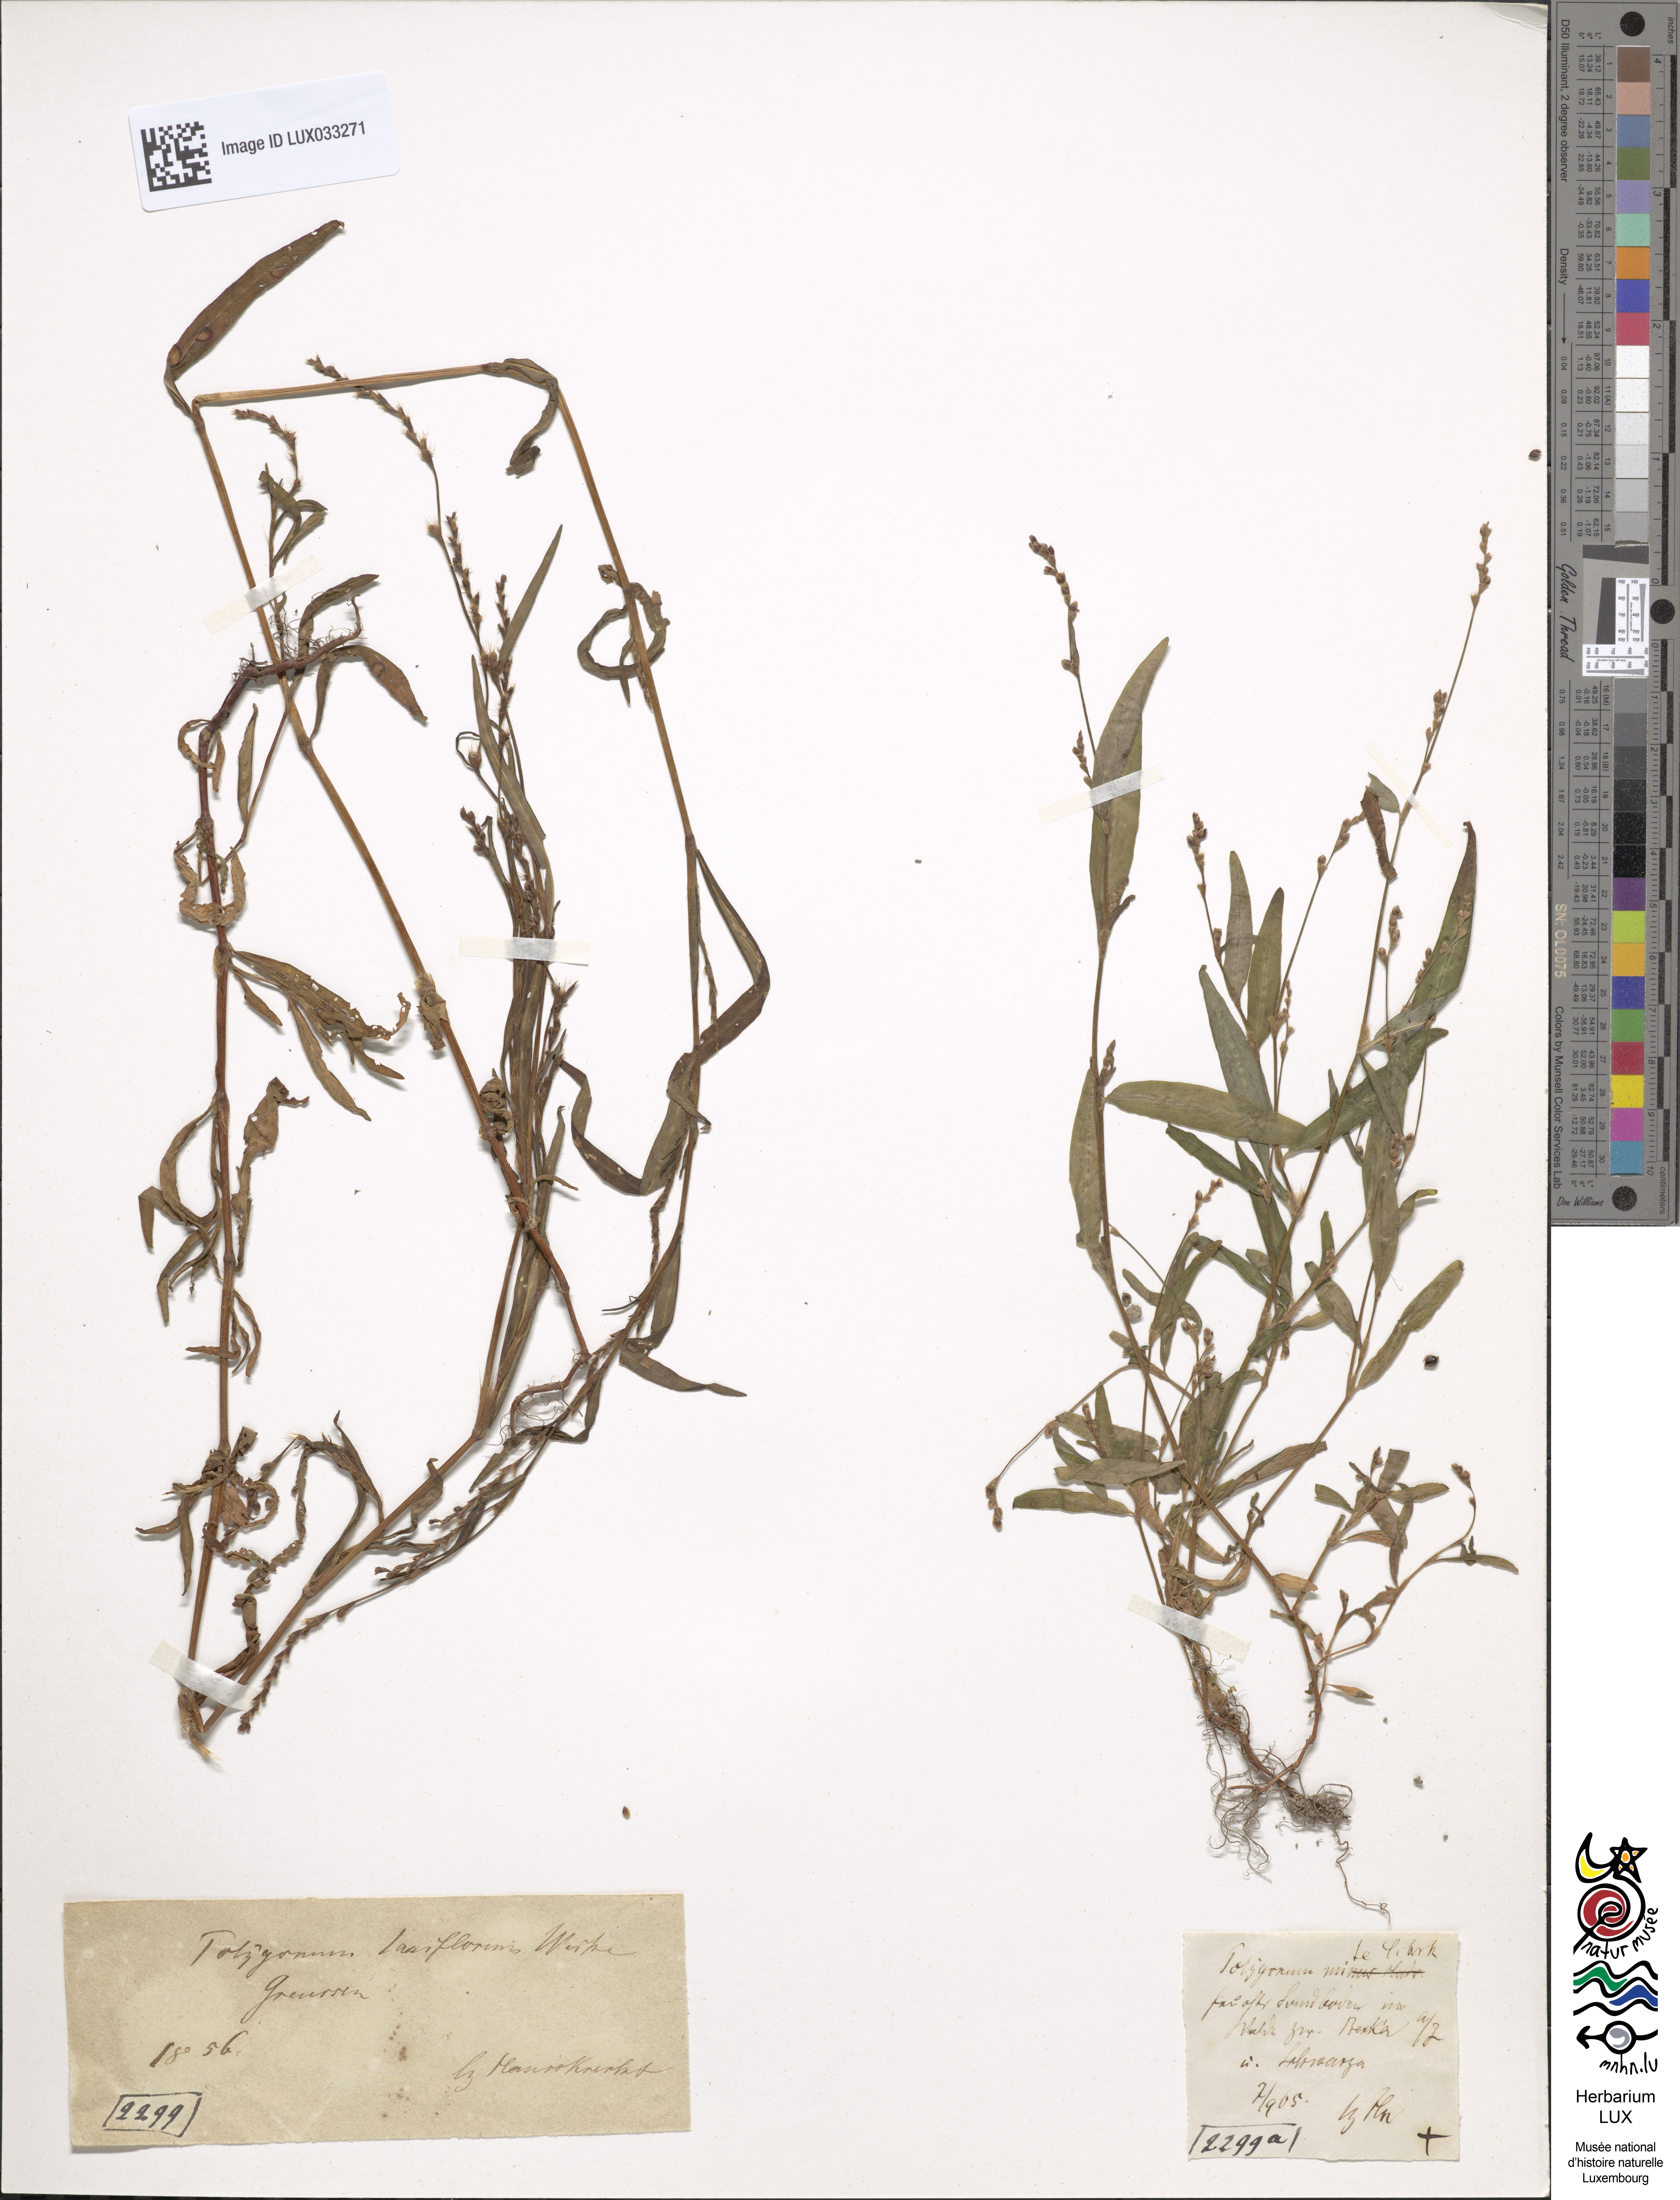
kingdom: Plantae
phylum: Tracheophyta
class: Magnoliopsida
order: Caryophyllales
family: Polygonaceae
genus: Persicaria
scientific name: Persicaria mitis
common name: Tasteless water-pepper
